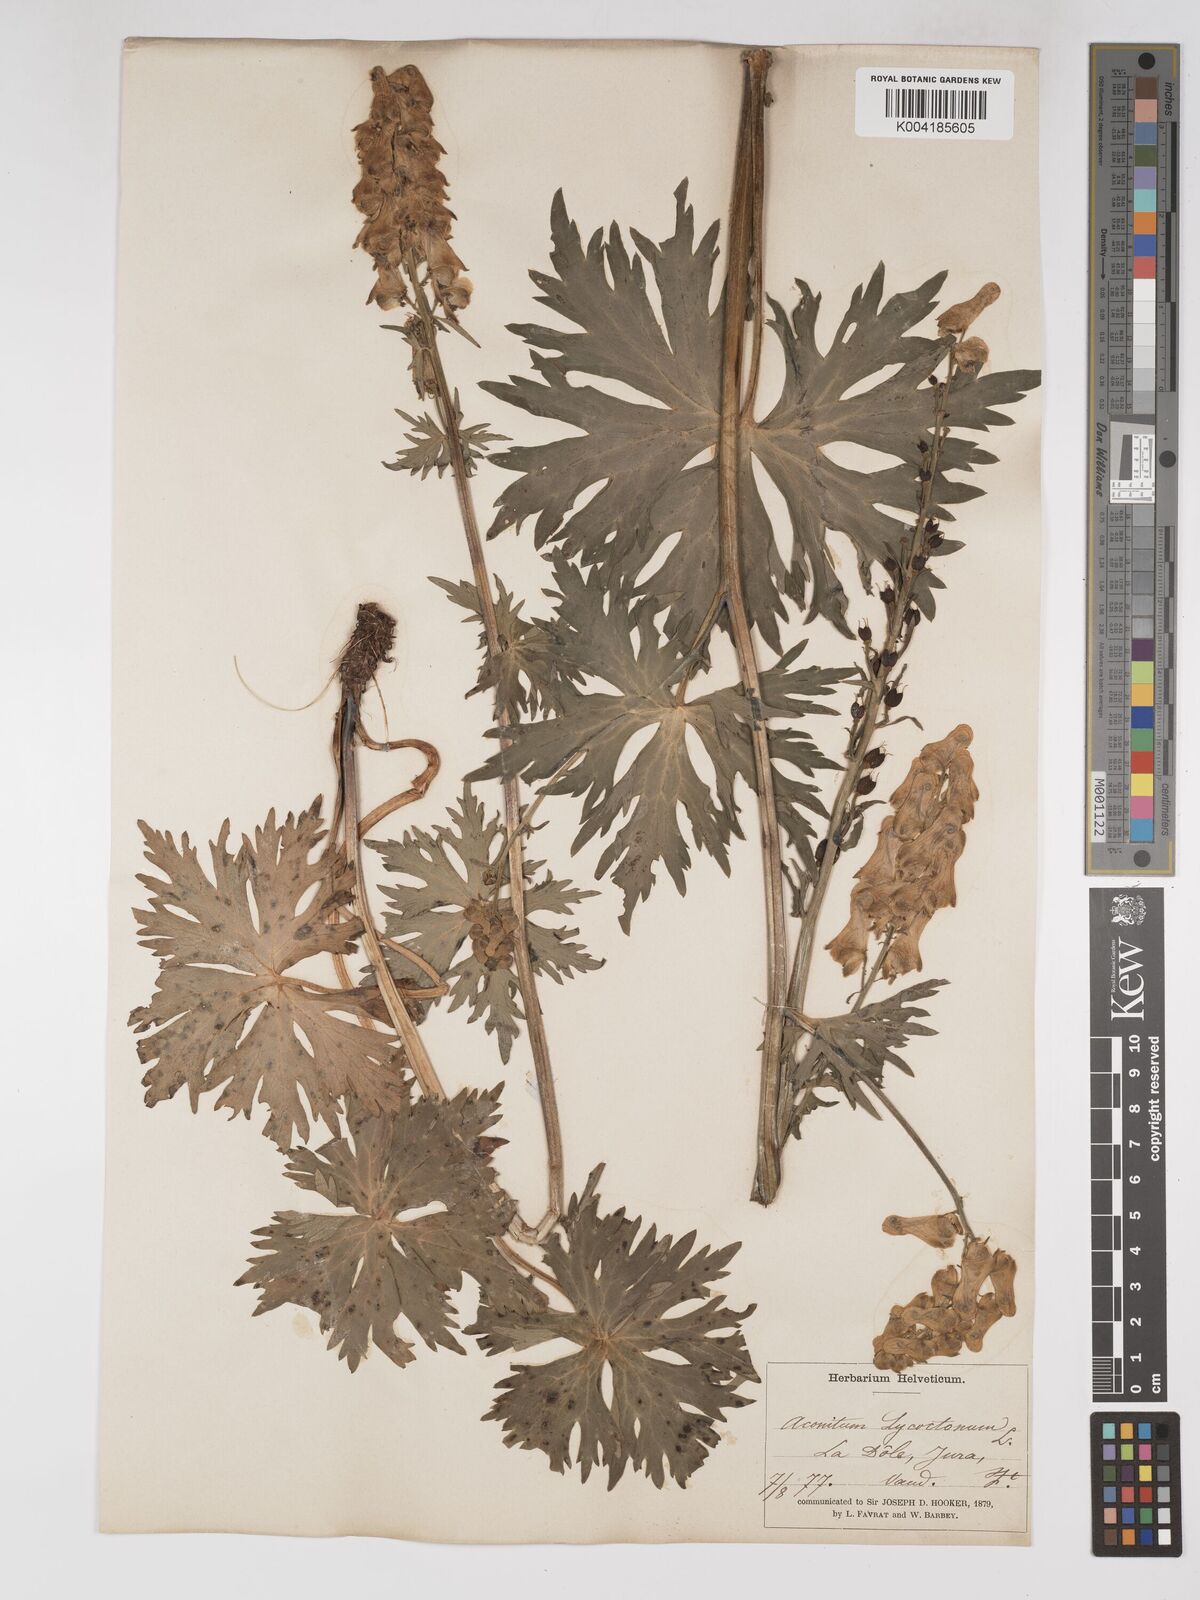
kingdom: Plantae
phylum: Tracheophyta
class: Magnoliopsida
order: Ranunculales
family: Ranunculaceae
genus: Aconitum
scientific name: Aconitum lycoctonum
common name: Wolf's-bane
